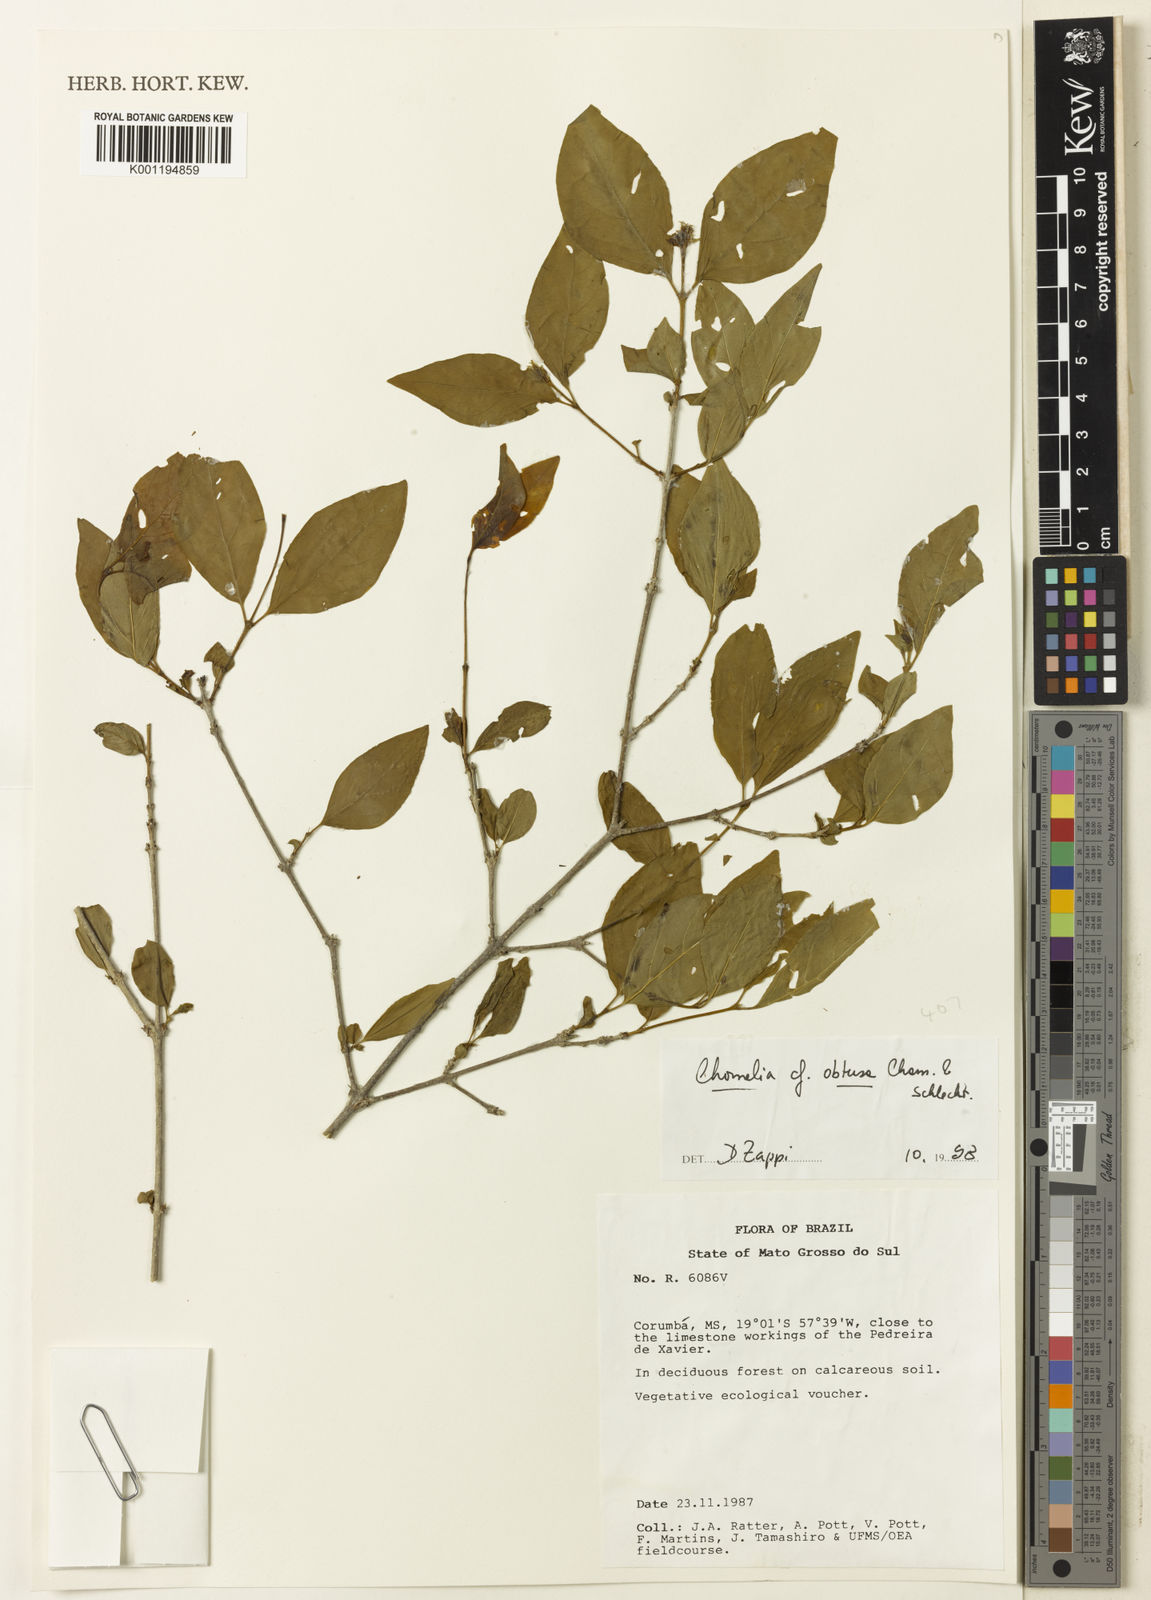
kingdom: Plantae
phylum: Tracheophyta
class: Magnoliopsida
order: Gentianales
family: Rubiaceae
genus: Chomelia
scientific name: Chomelia obtusa
